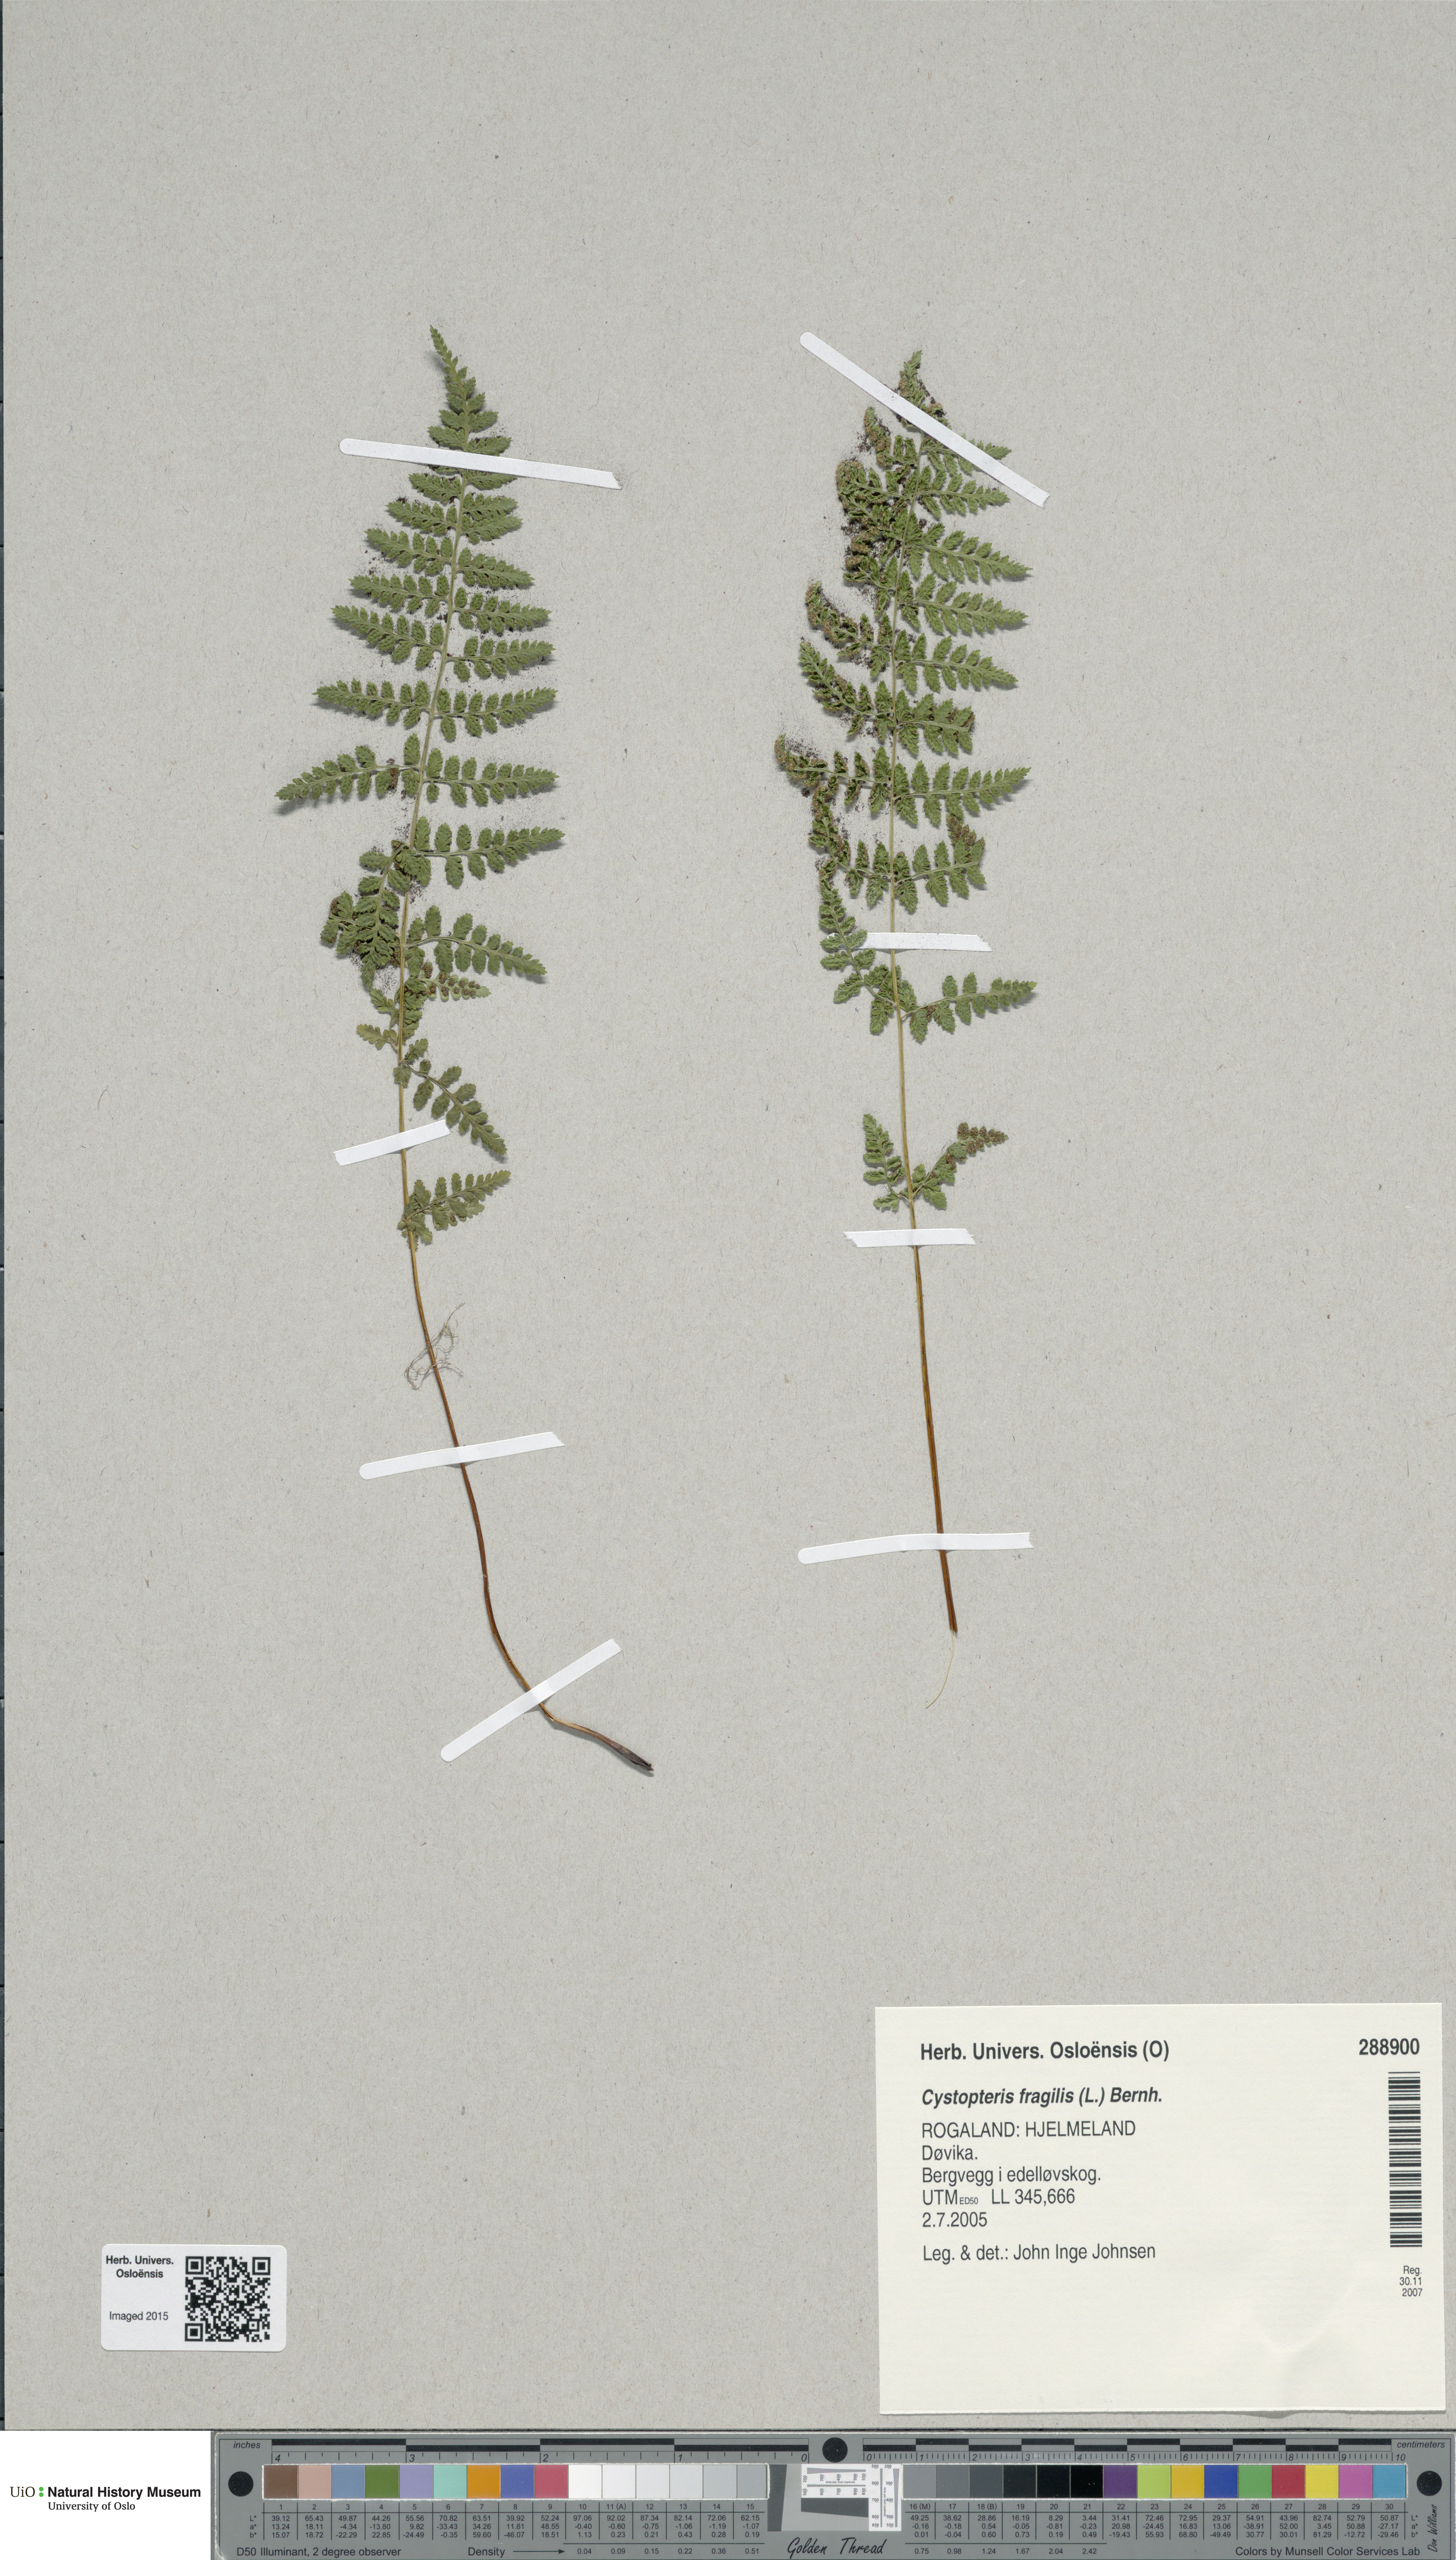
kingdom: Plantae
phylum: Tracheophyta
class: Polypodiopsida
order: Polypodiales
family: Cystopteridaceae
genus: Cystopteris
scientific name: Cystopteris fragilis
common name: Brittle bladder fern
